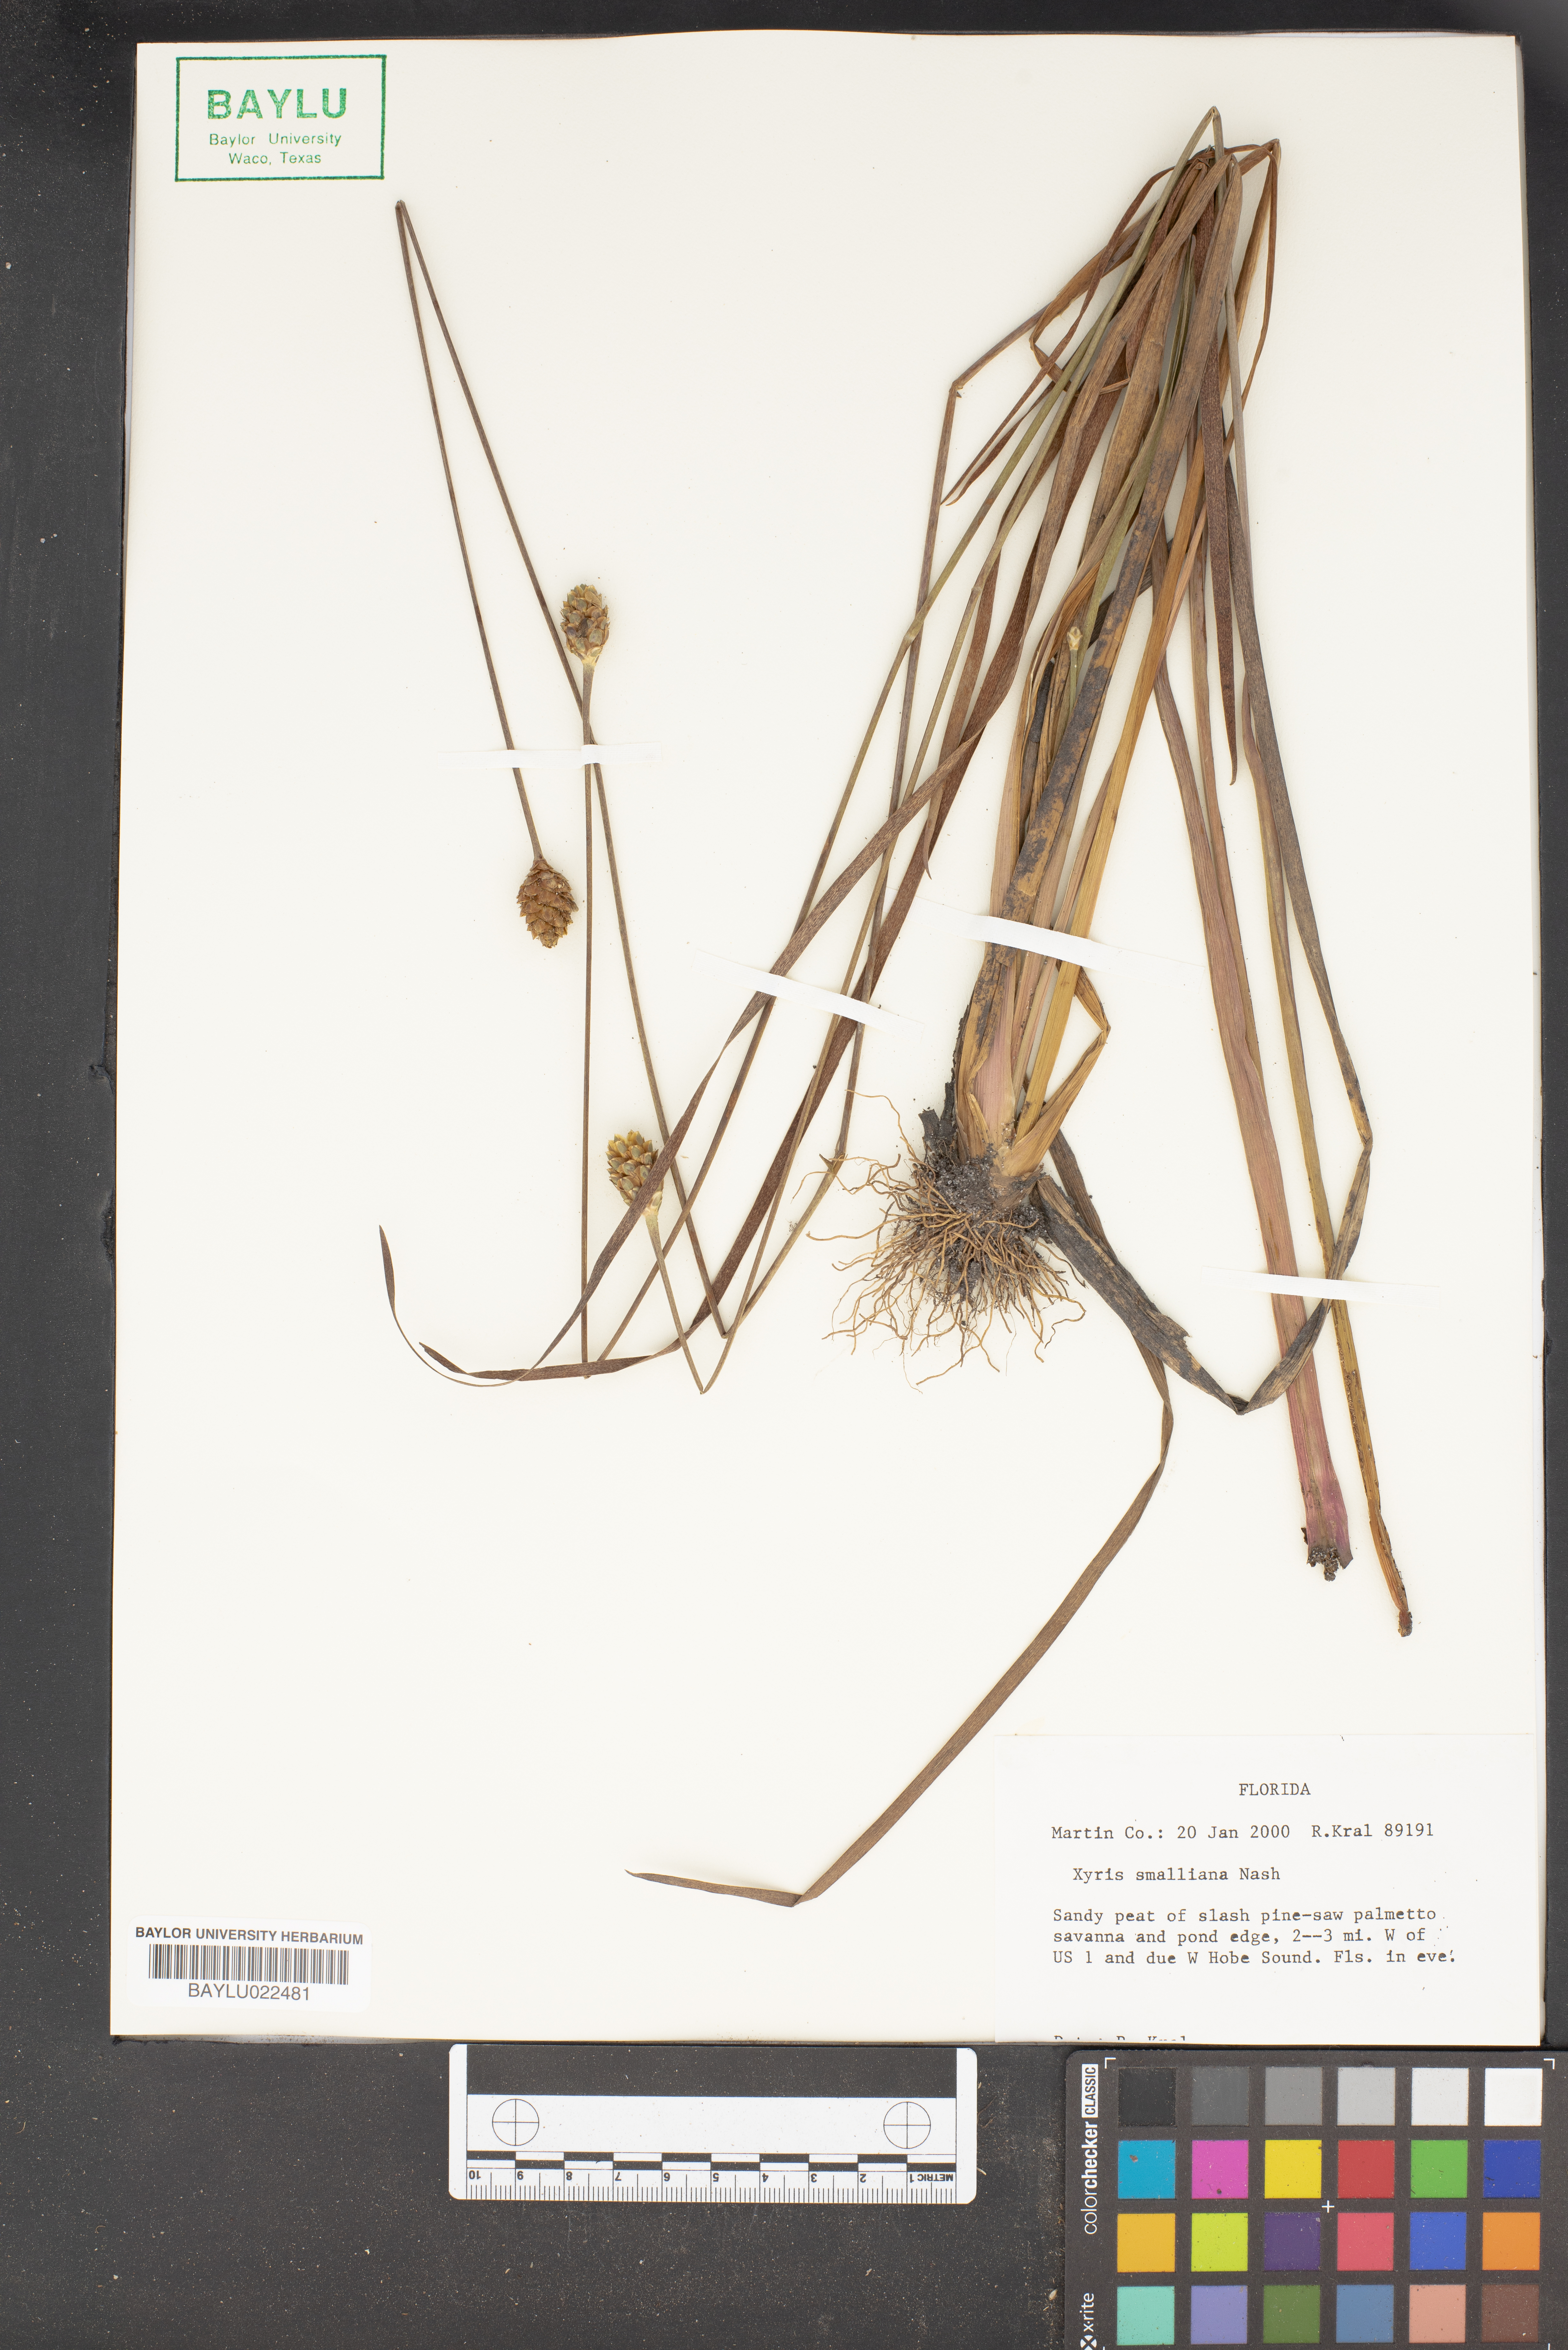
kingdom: Plantae
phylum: Tracheophyta
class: Liliopsida
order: Poales
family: Xyridaceae
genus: Xyris
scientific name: Xyris smalliana
